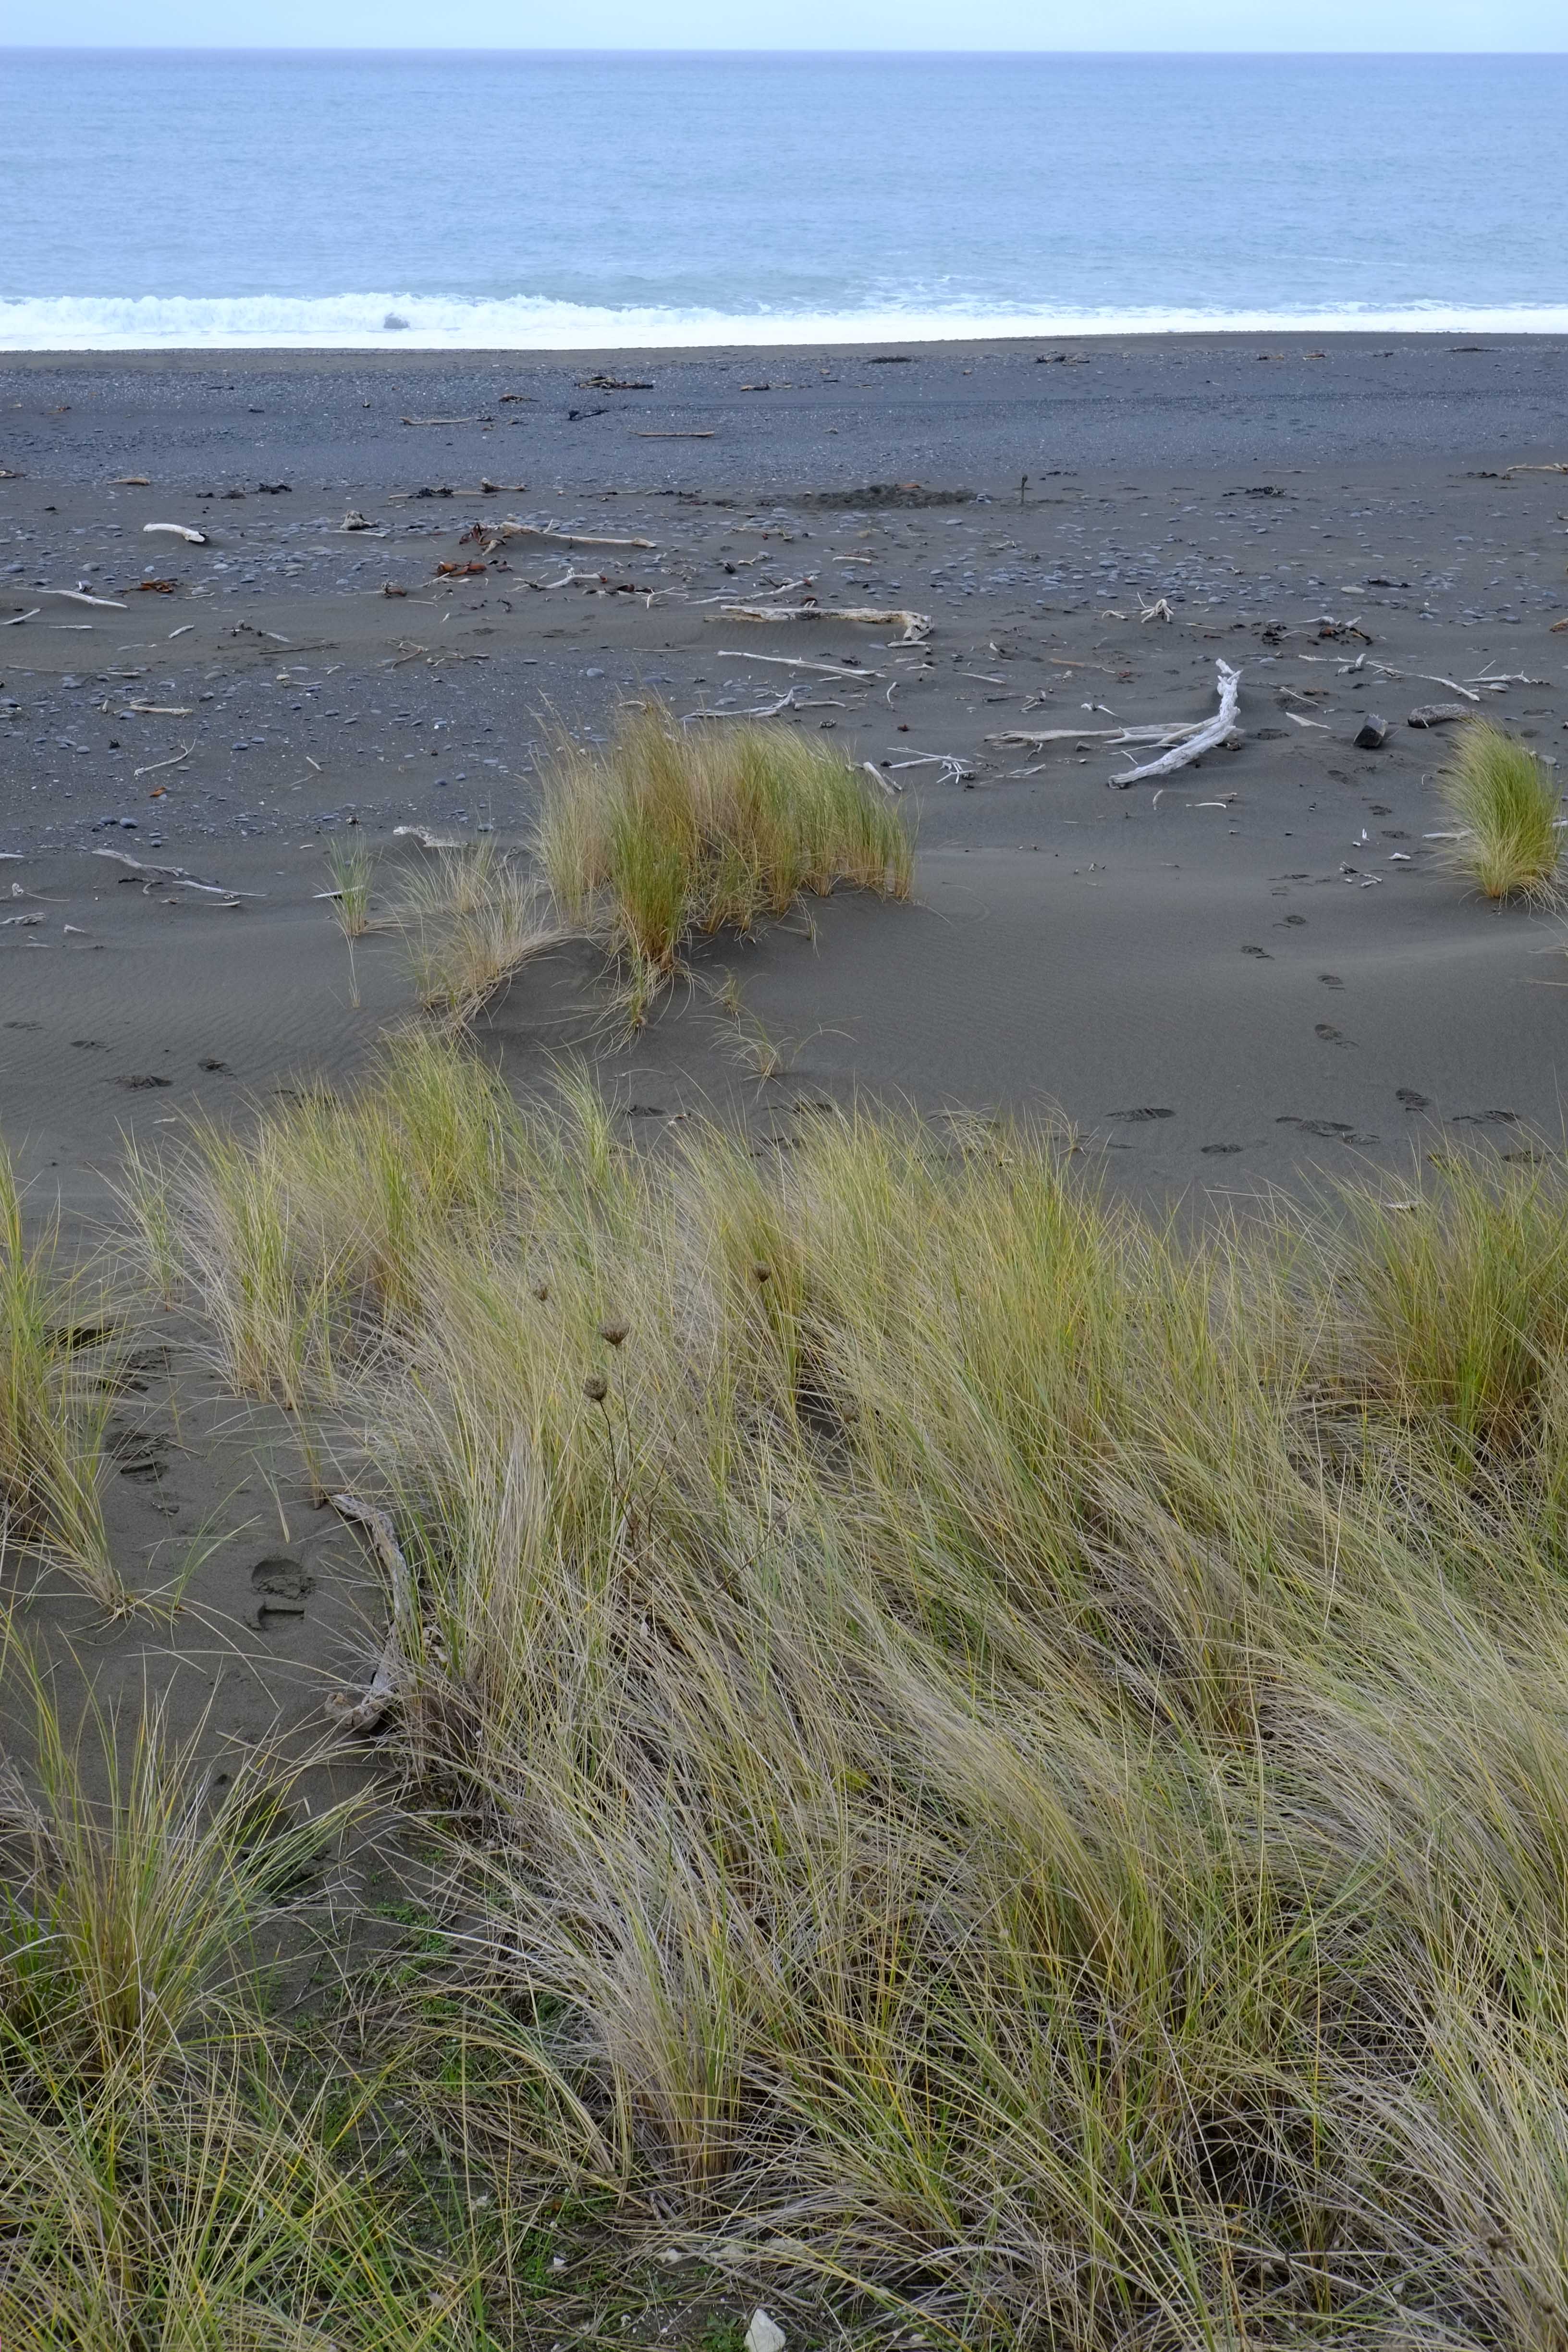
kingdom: Animalia
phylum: Chordata
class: Mammalia
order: Carnivora
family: Otariidae
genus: Arctocephalus
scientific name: Arctocephalus forsteri
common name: New zealand fur seal
